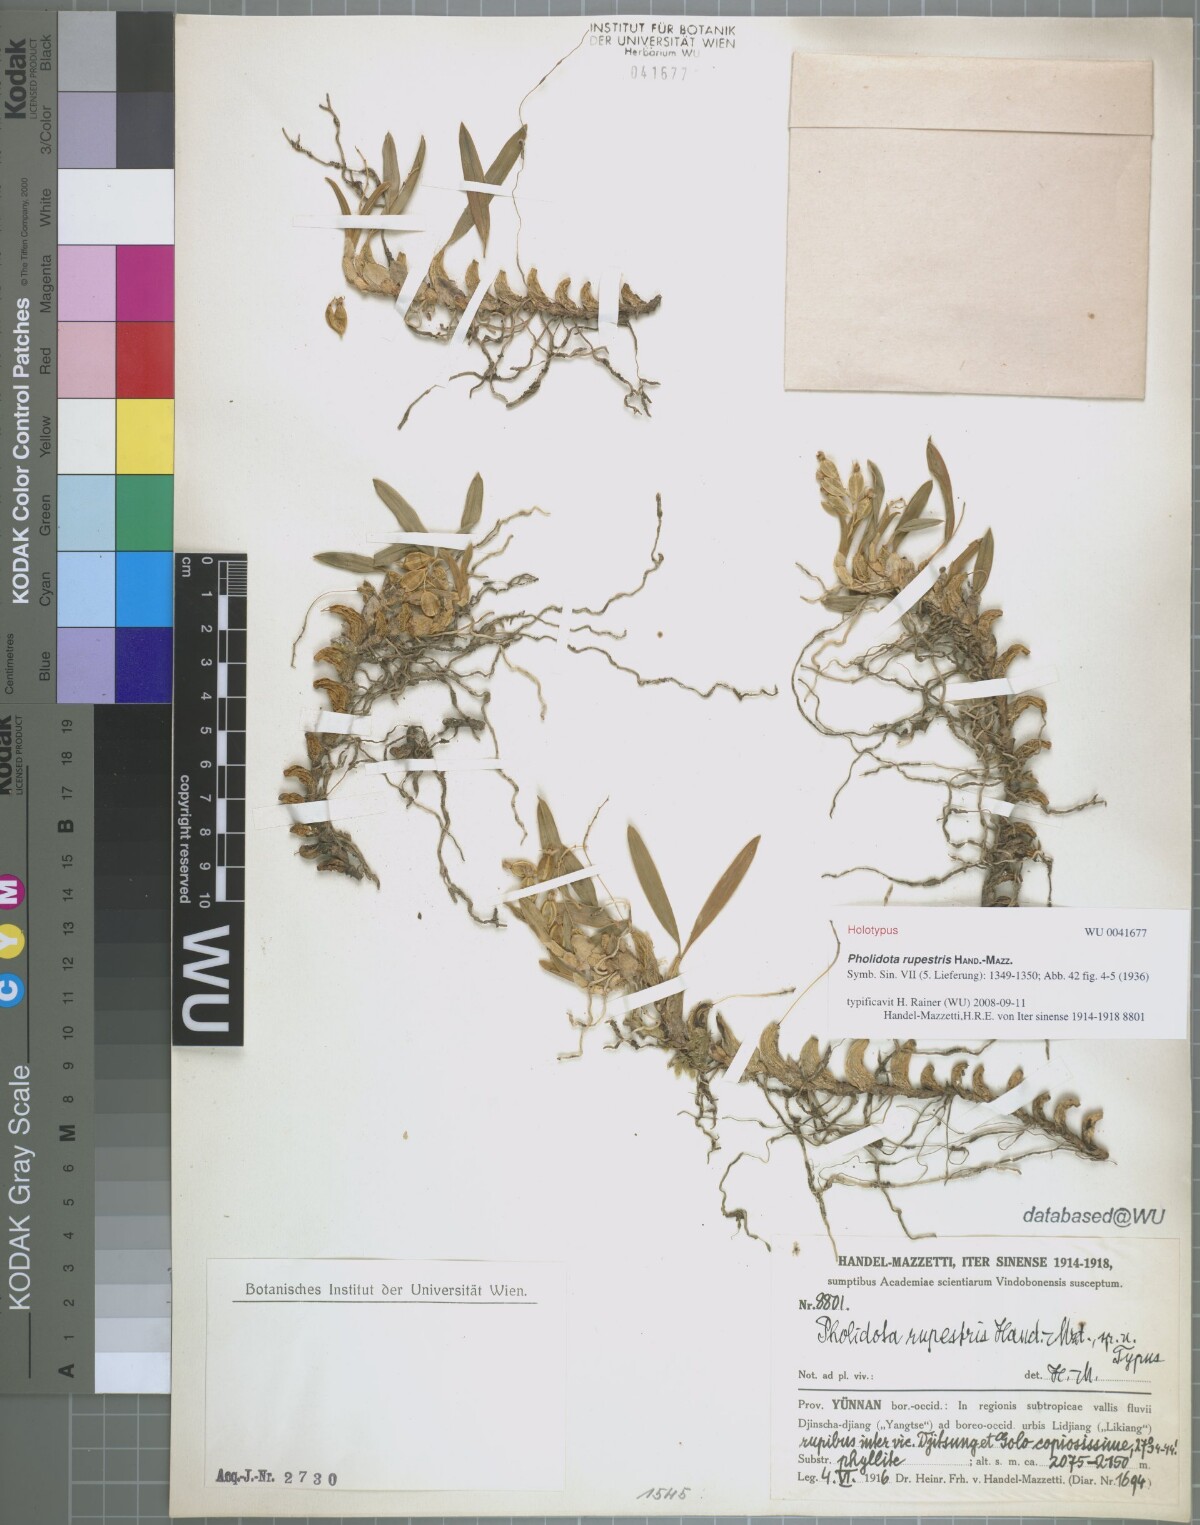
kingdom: Plantae
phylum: Tracheophyta
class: Liliopsida
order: Asparagales
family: Orchidaceae
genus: Coelogyne
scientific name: Coelogyne missionariorum
